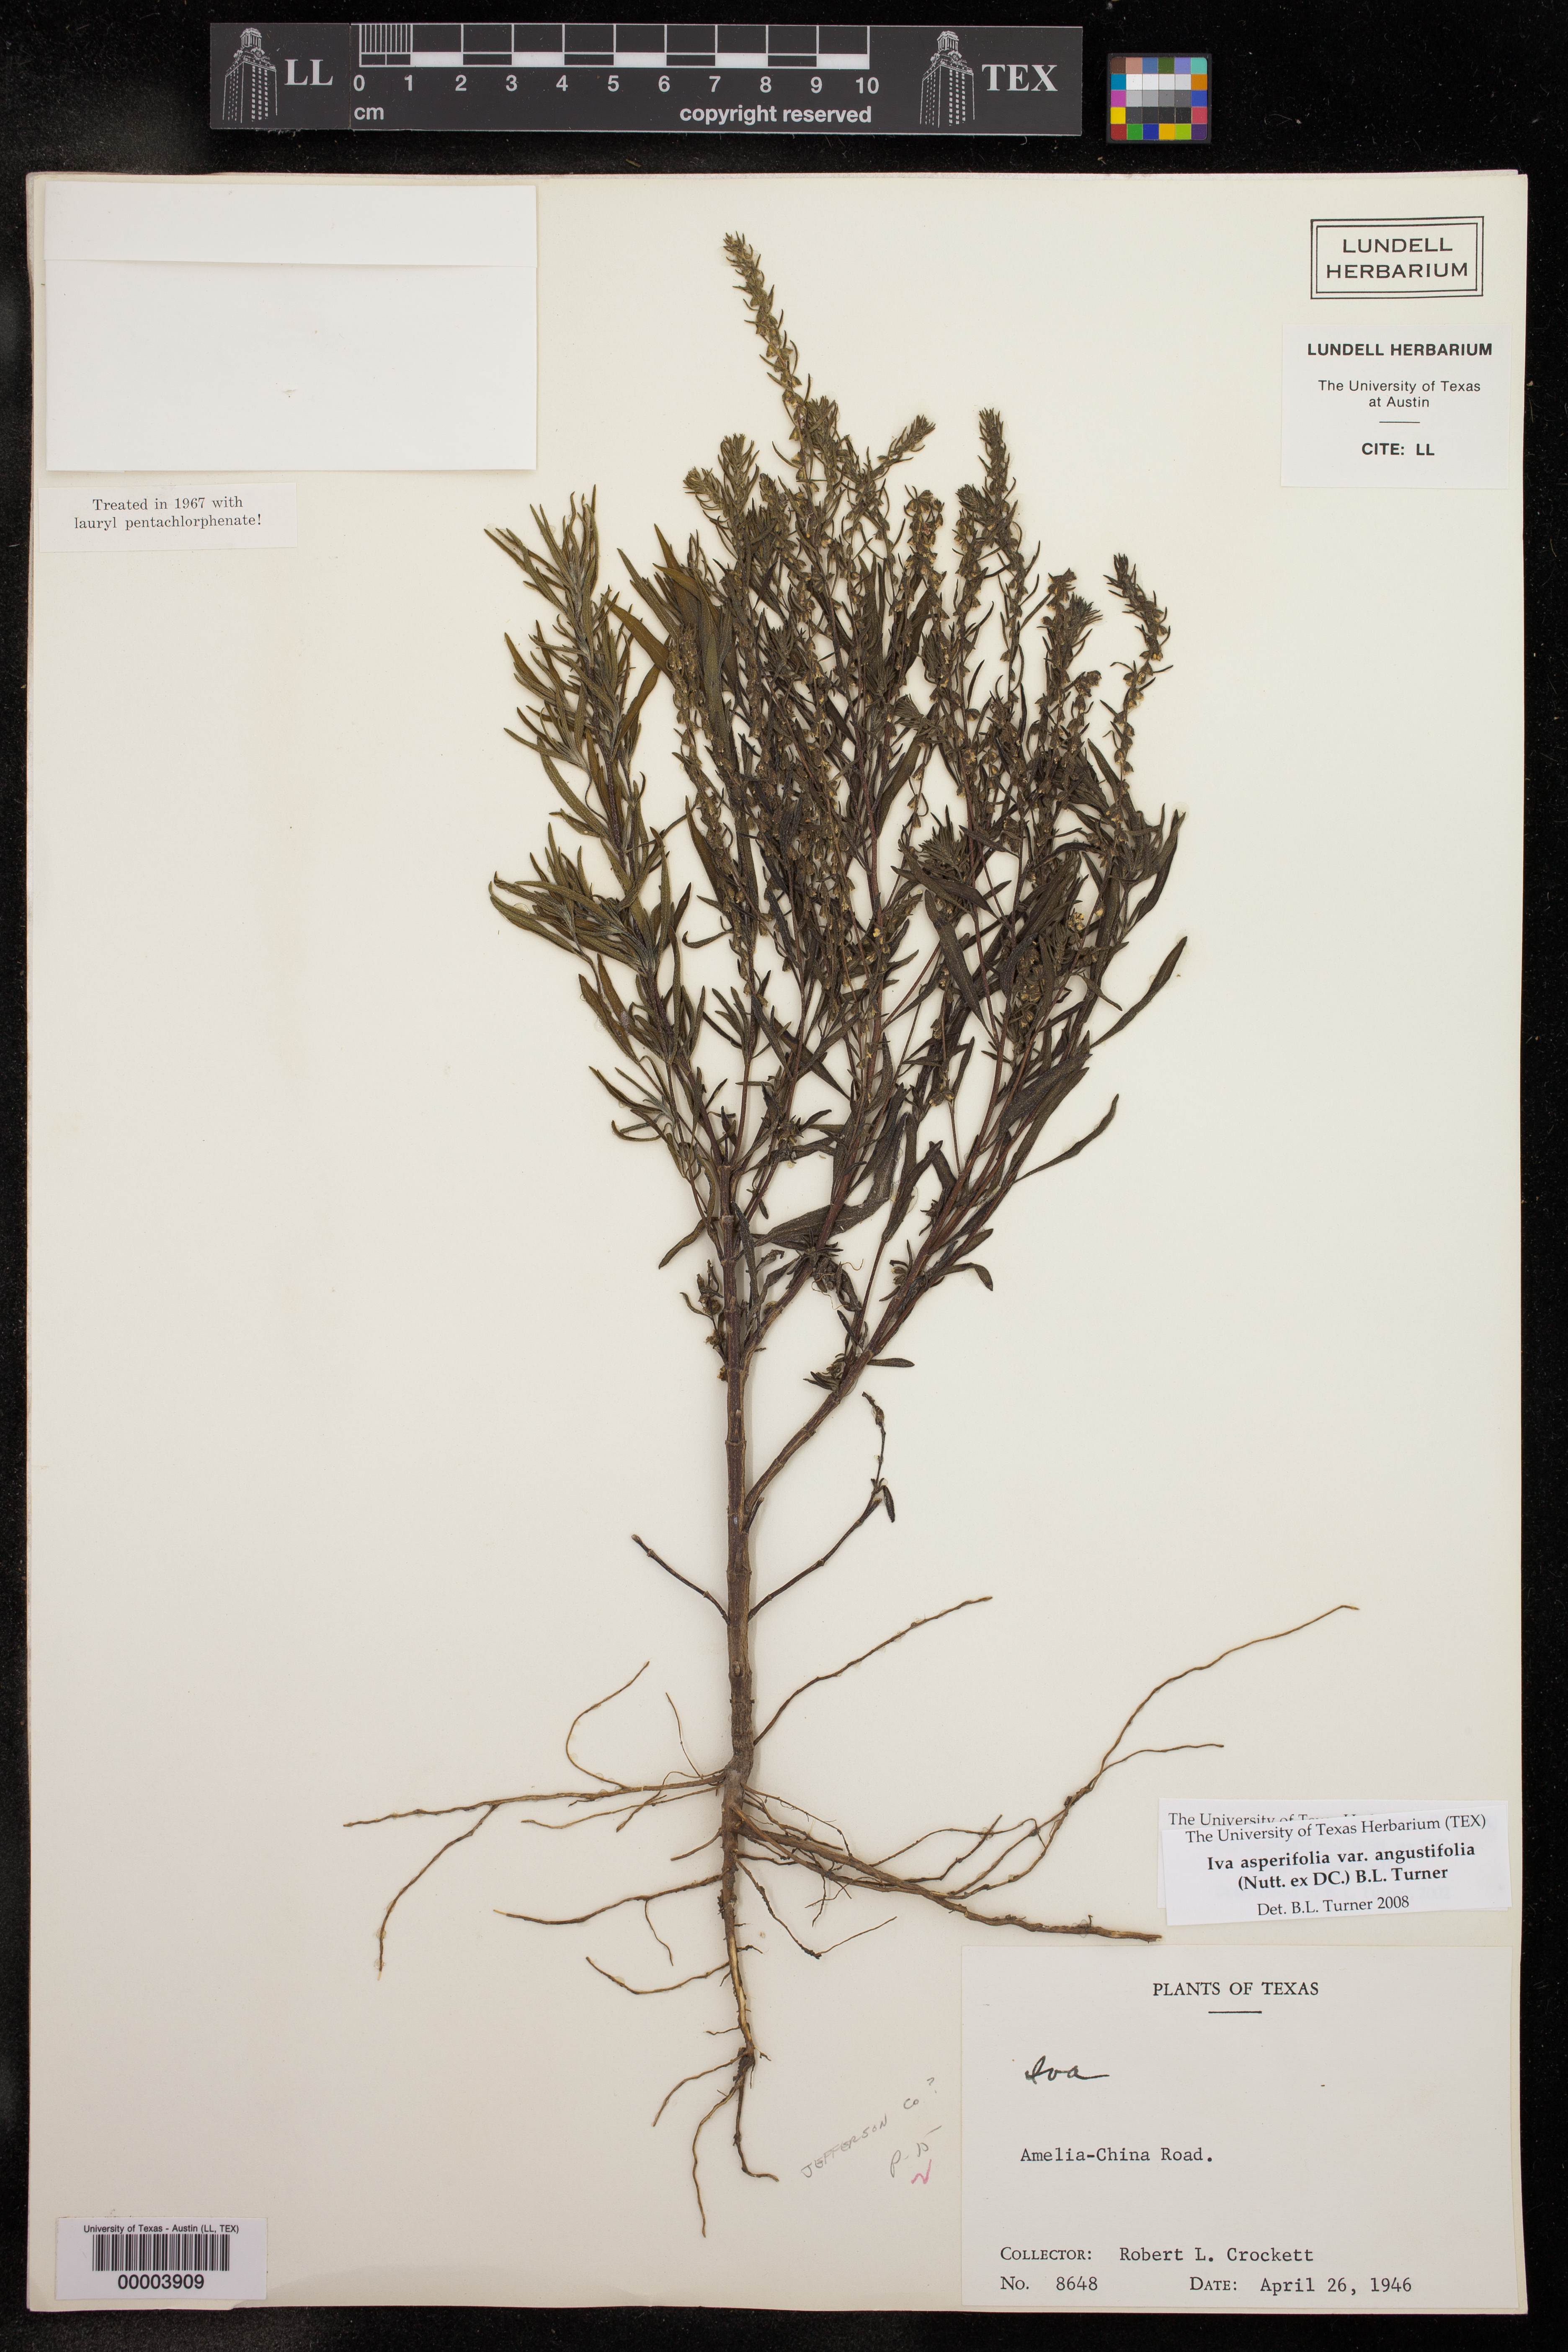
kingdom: Plantae
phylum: Tracheophyta
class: Magnoliopsida
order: Asterales
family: Asteraceae
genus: Iva
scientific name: Iva asperifolia
